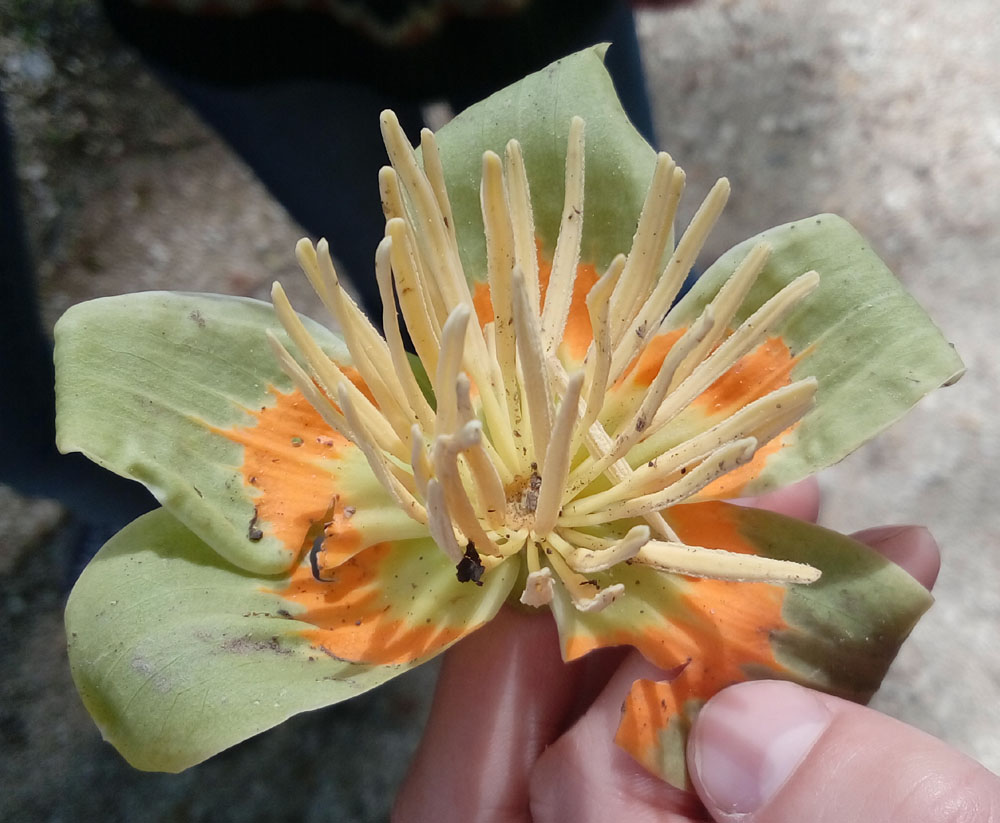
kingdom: Plantae
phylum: Tracheophyta
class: Magnoliopsida
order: Magnoliales
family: Magnoliaceae
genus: Liriodendron
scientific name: Liriodendron tulipifera
